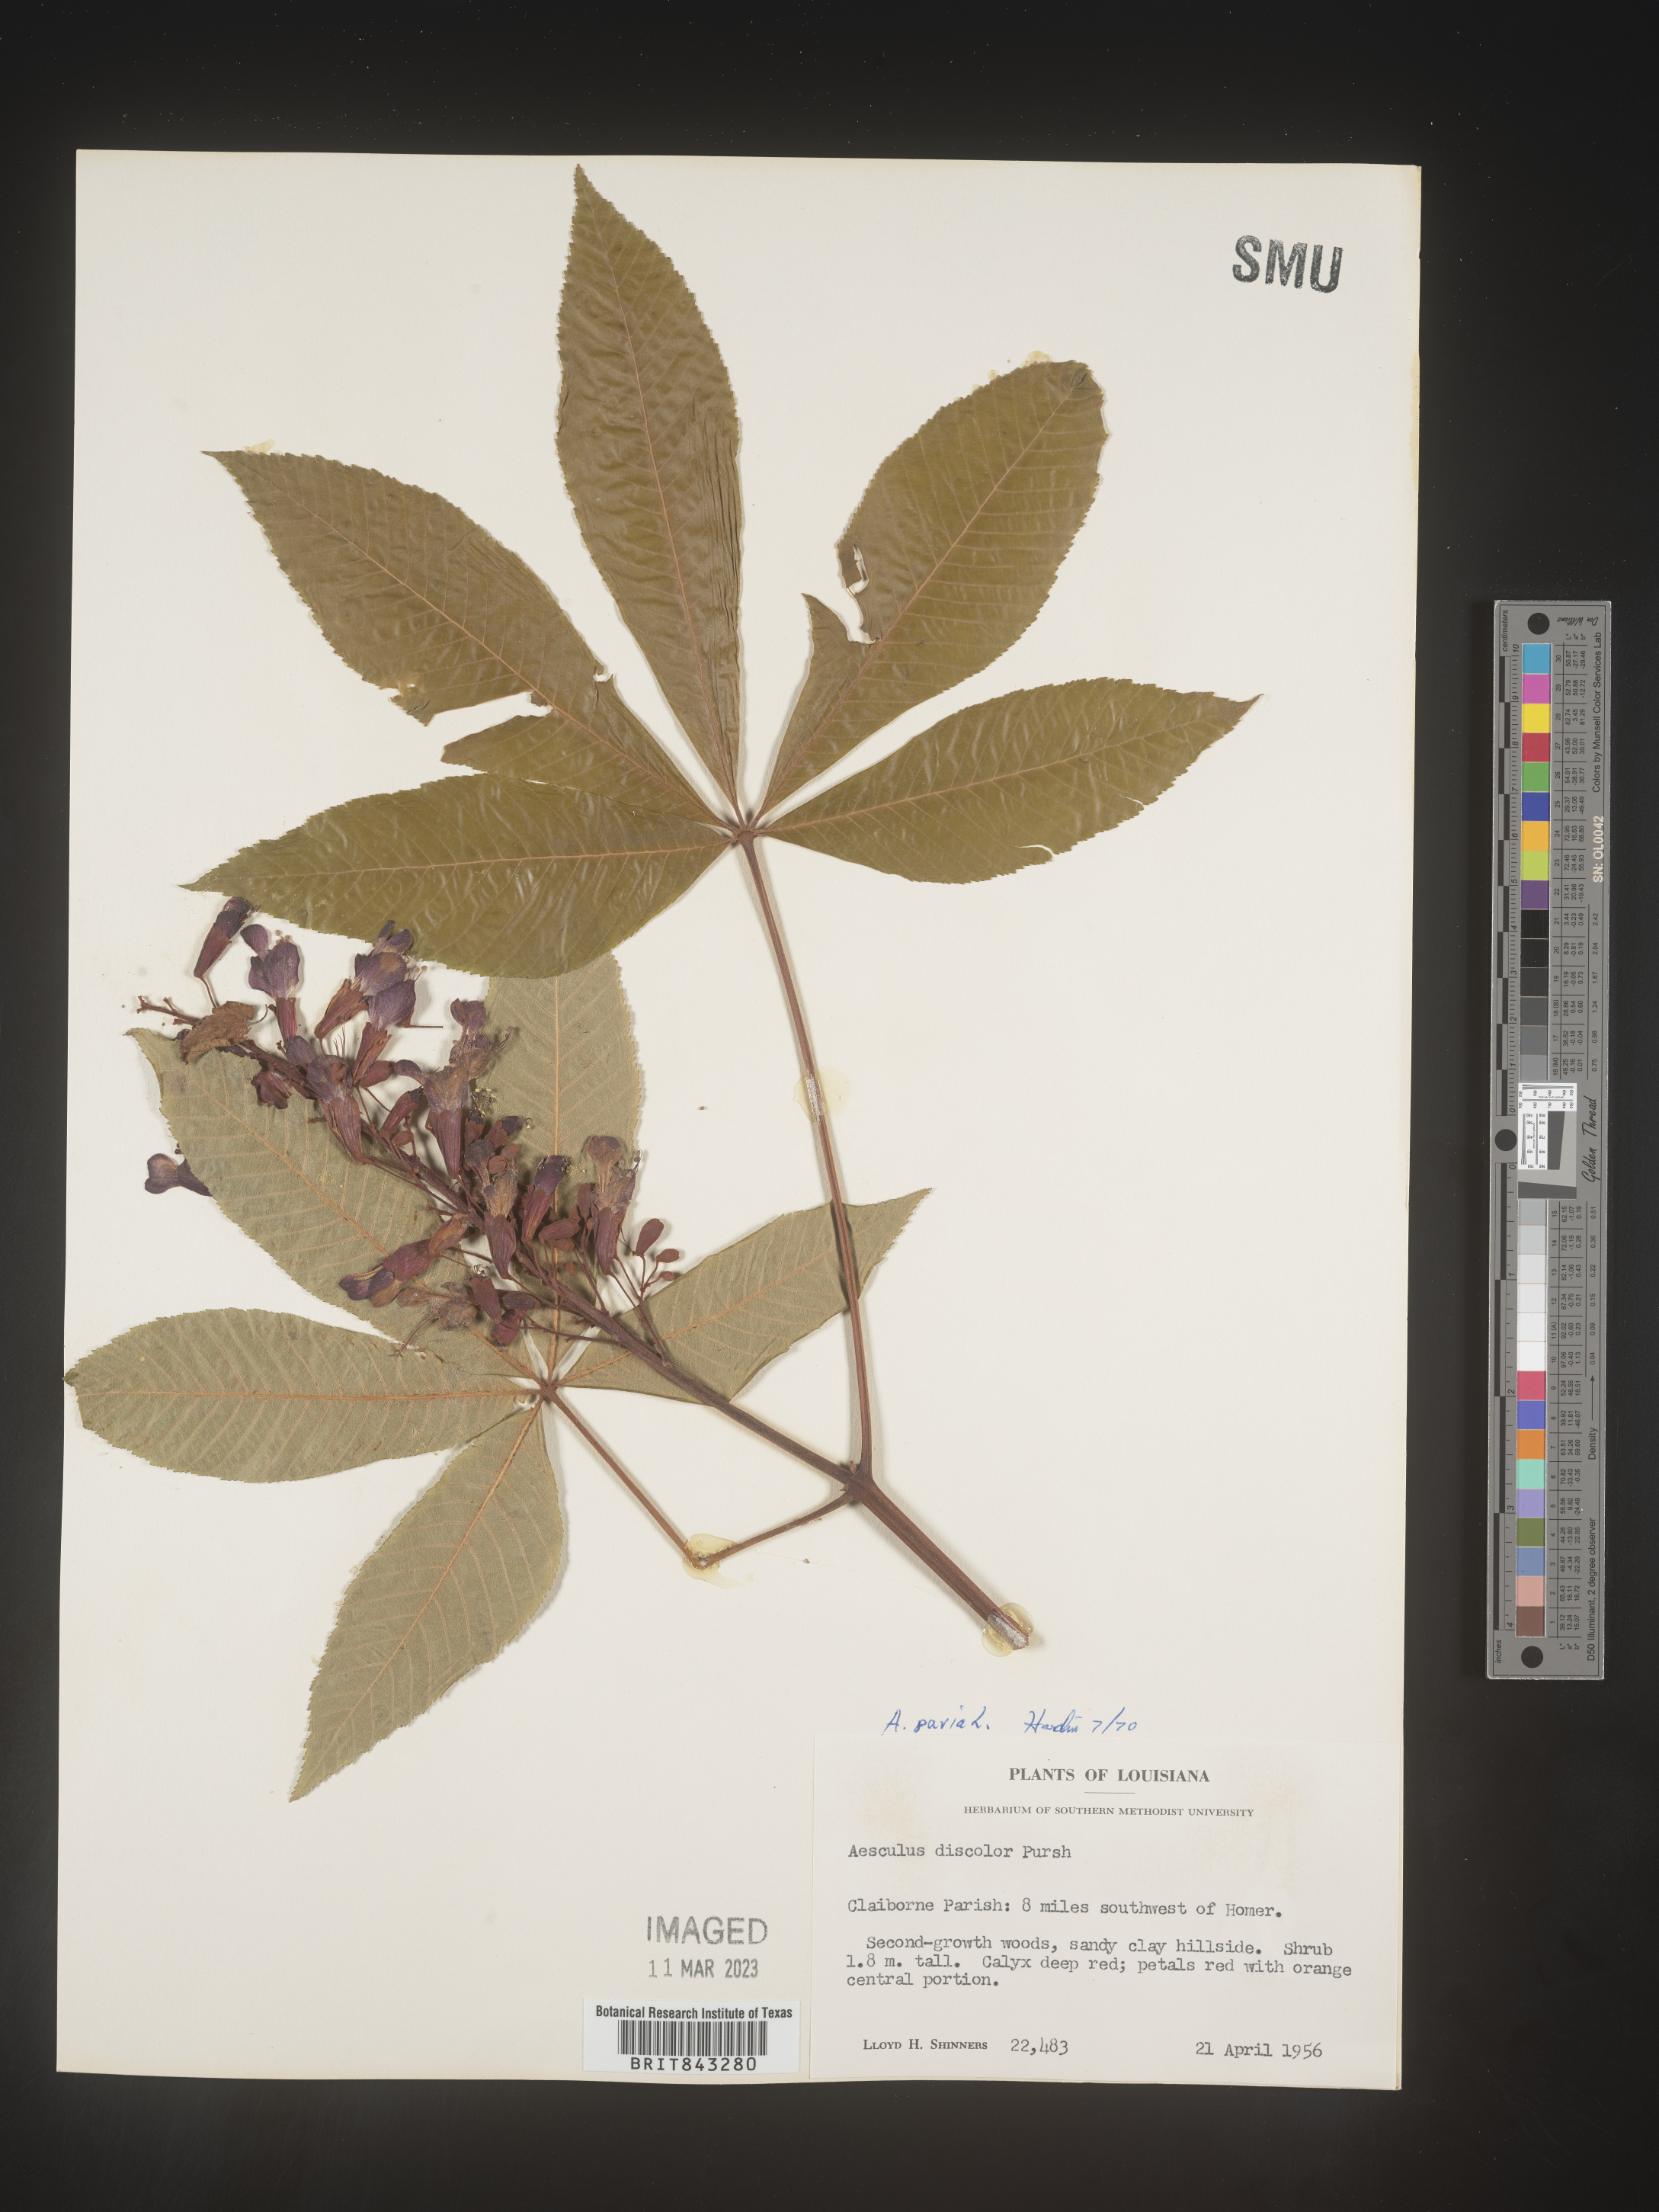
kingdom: Plantae
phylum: Tracheophyta
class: Magnoliopsida
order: Sapindales
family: Sapindaceae
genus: Aesculus
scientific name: Aesculus pavia
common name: Red buckeye
